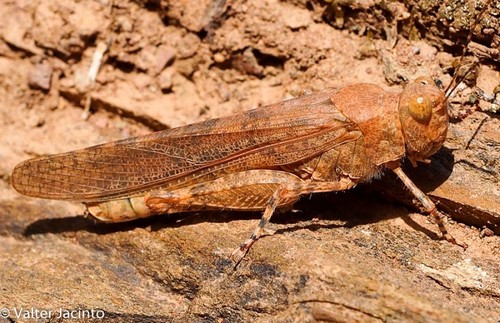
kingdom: Animalia
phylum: Arthropoda
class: Insecta
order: Orthoptera
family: Acrididae
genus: Sphingonotus
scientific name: Sphingonotus rubescens
